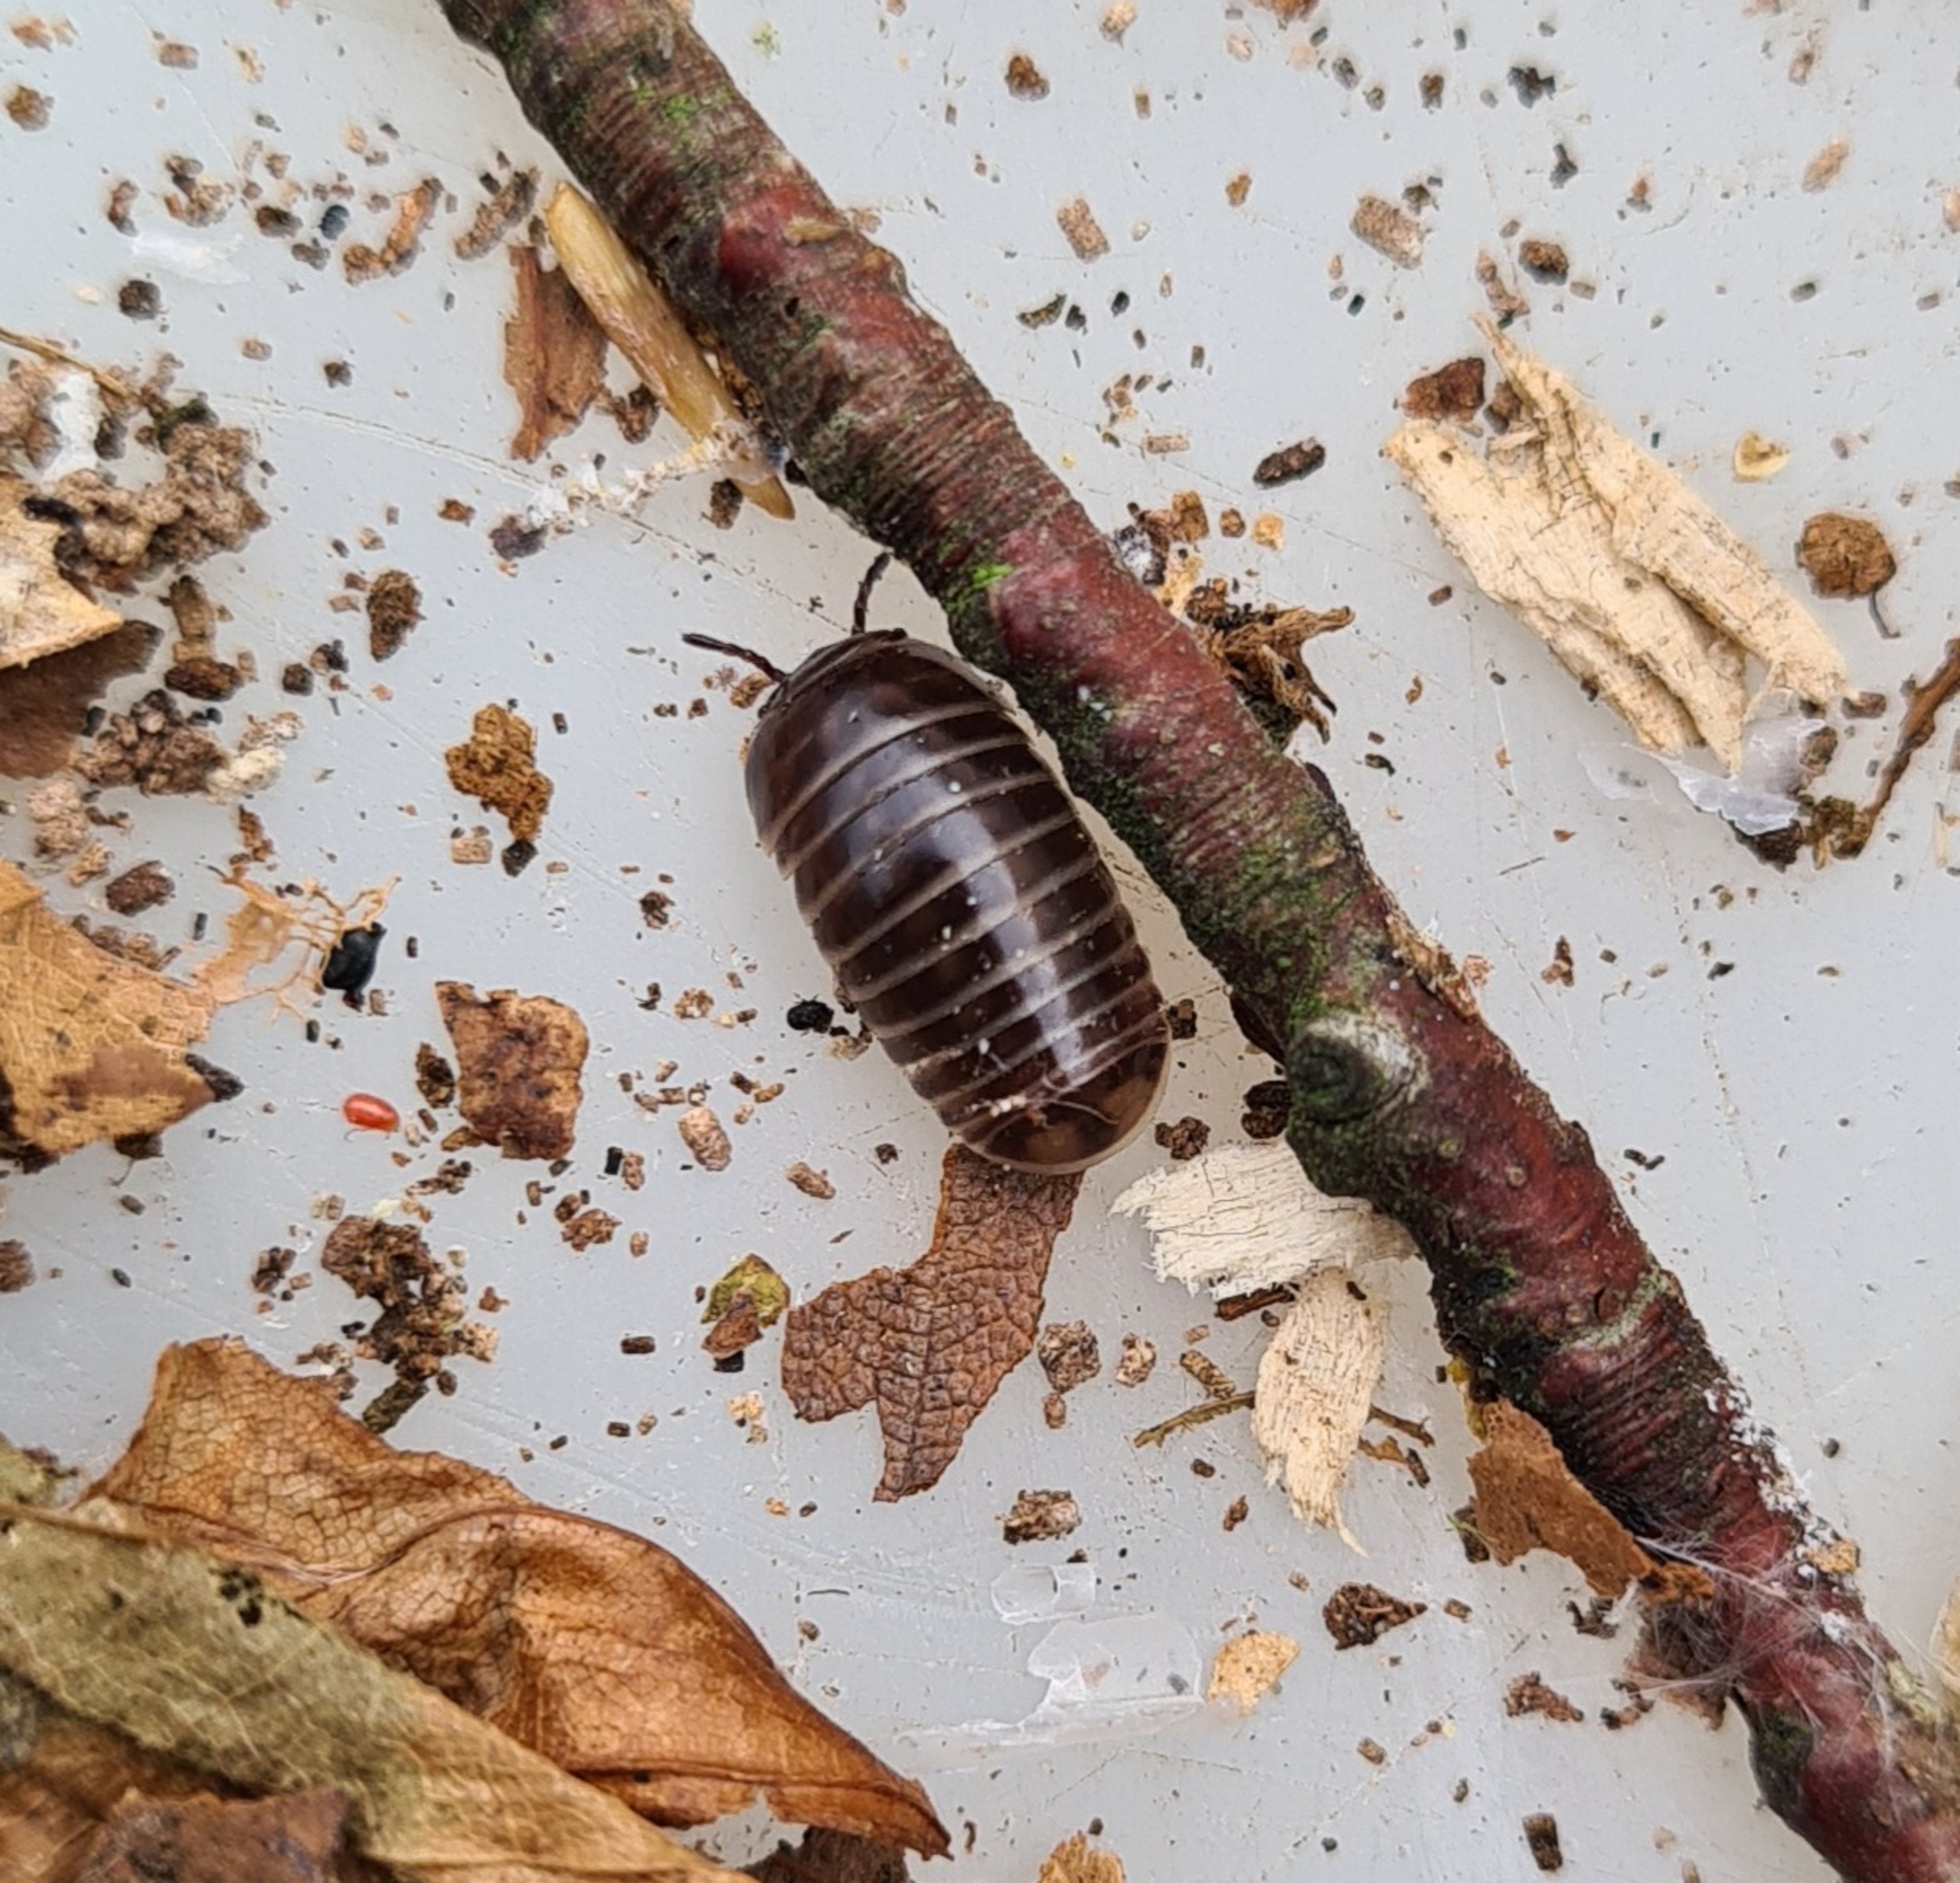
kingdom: Animalia
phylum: Arthropoda
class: Diplopoda
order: Glomerida
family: Glomeridae
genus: Glomeris
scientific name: Glomeris marginata
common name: Kugletusindben
